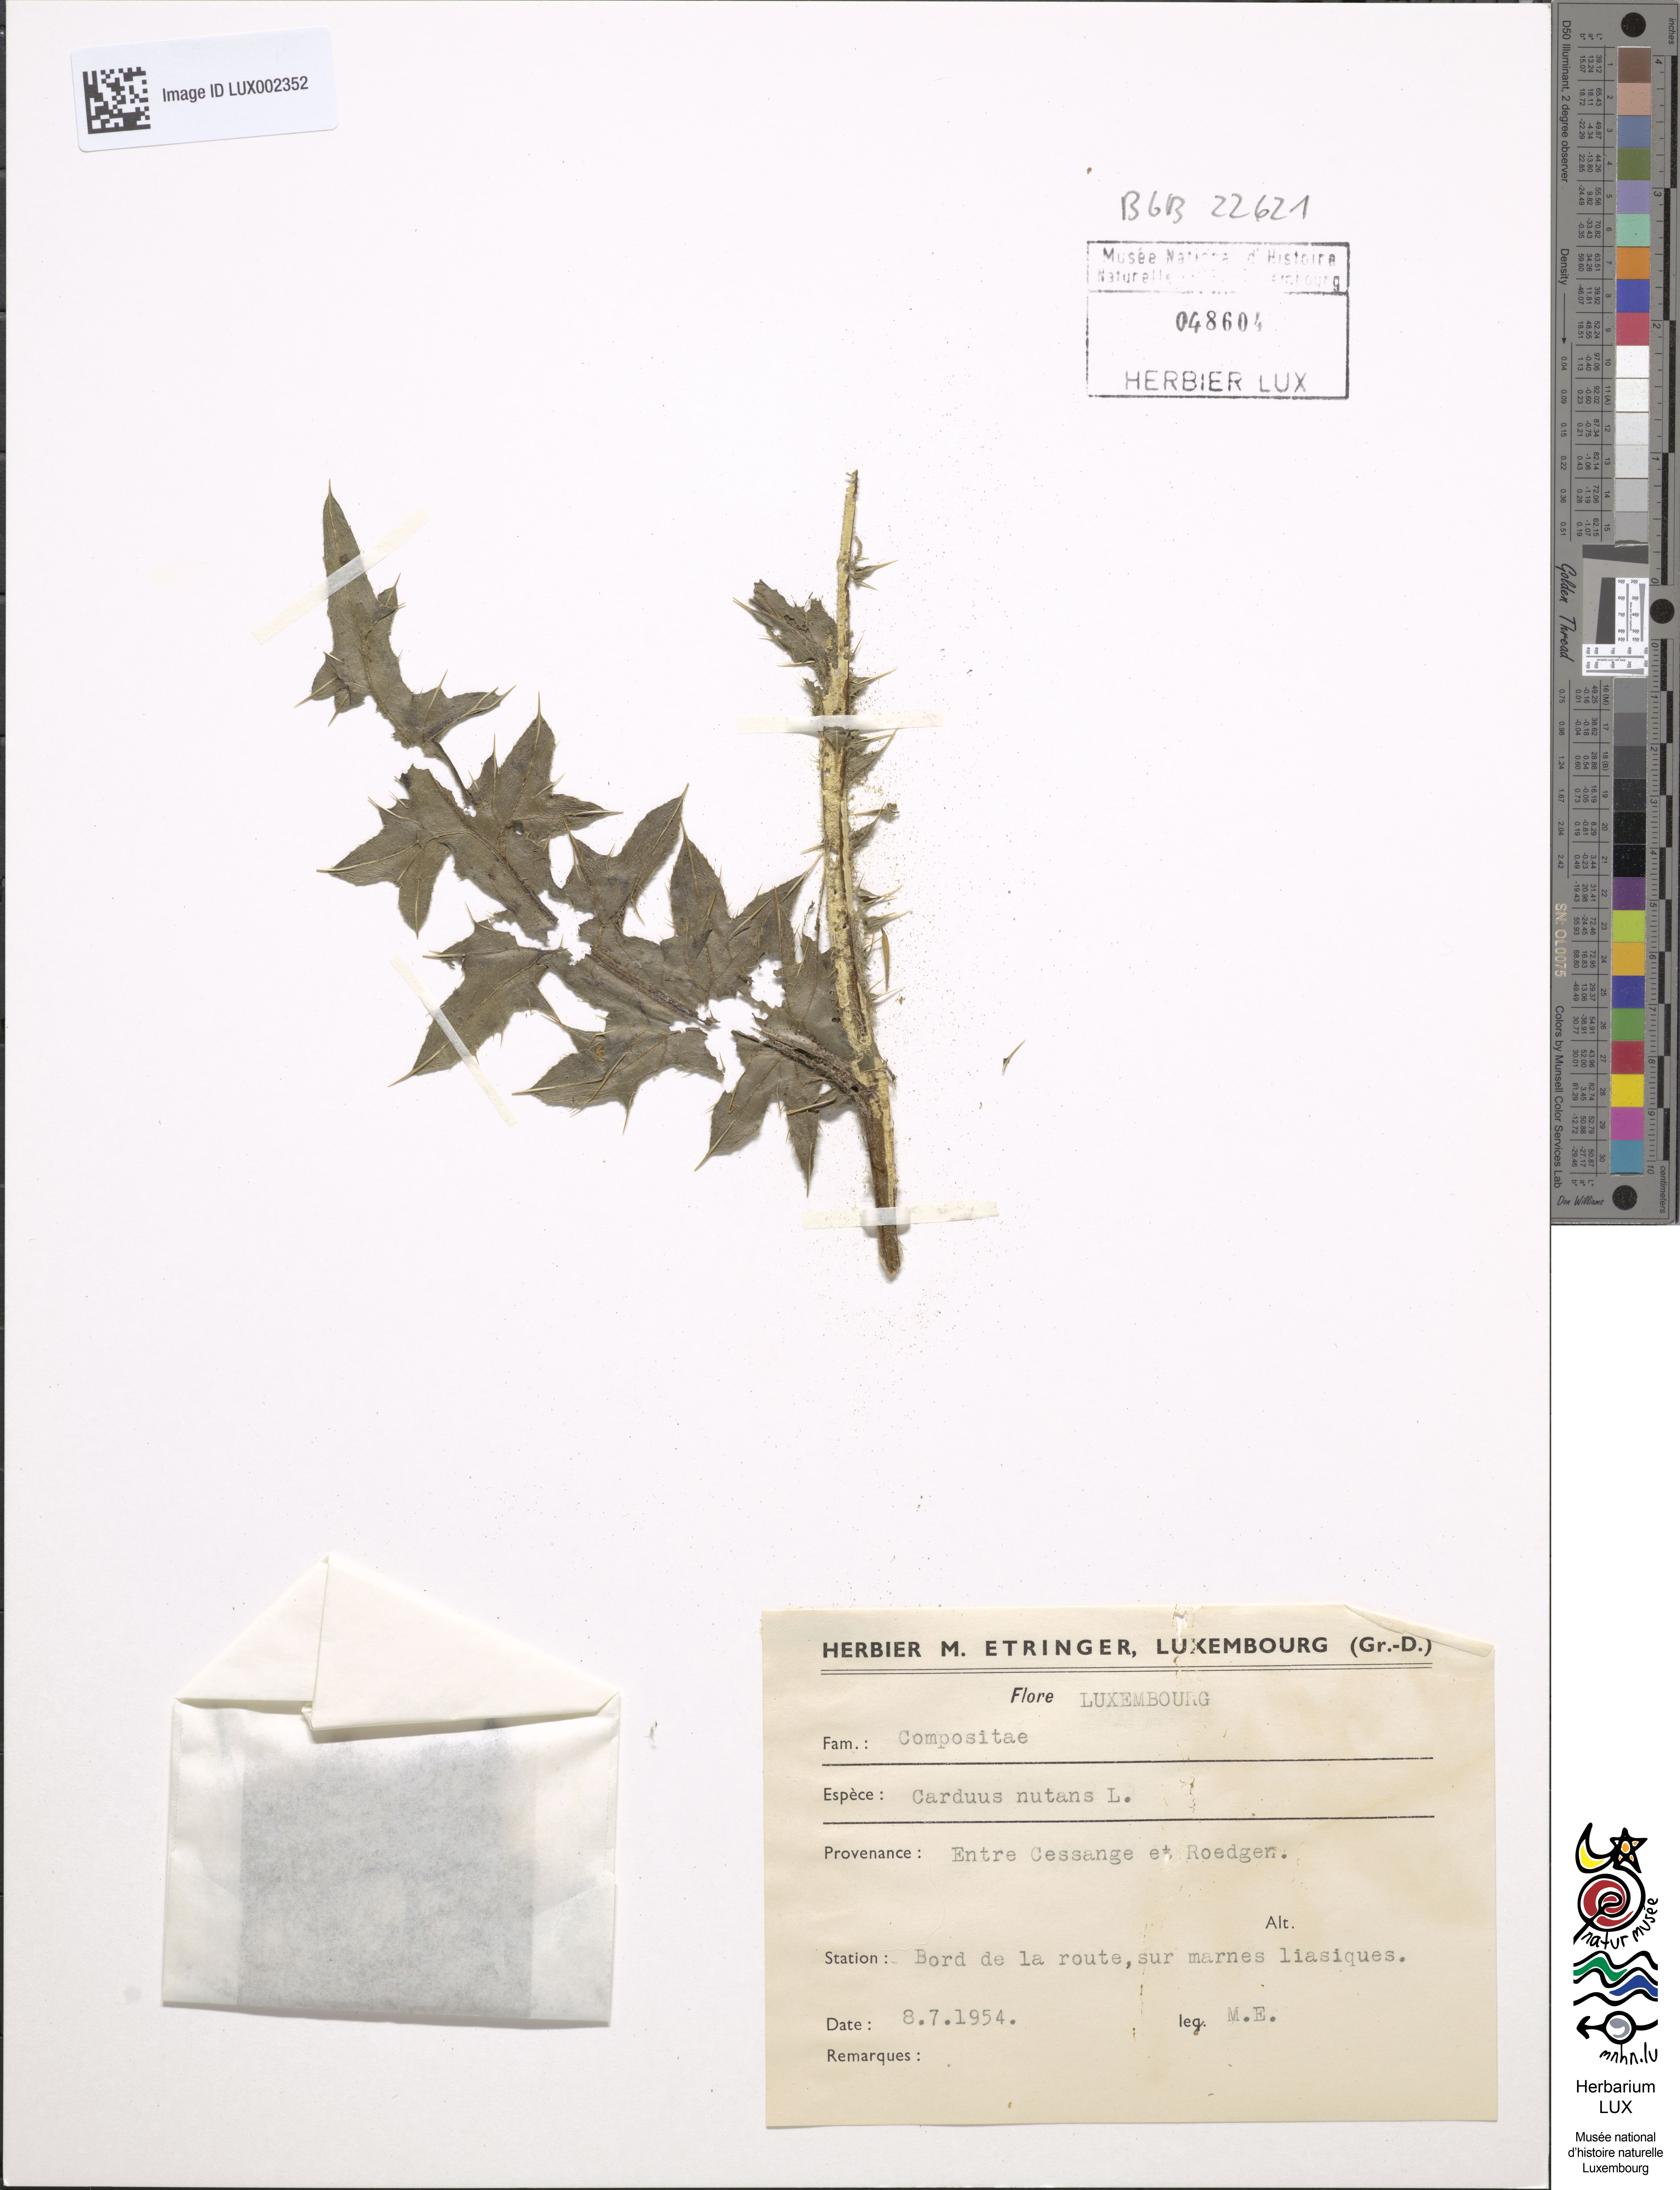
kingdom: Plantae
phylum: Tracheophyta
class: Magnoliopsida
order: Asterales
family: Asteraceae
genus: Carduus
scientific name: Carduus nutans
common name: Musk thistle
